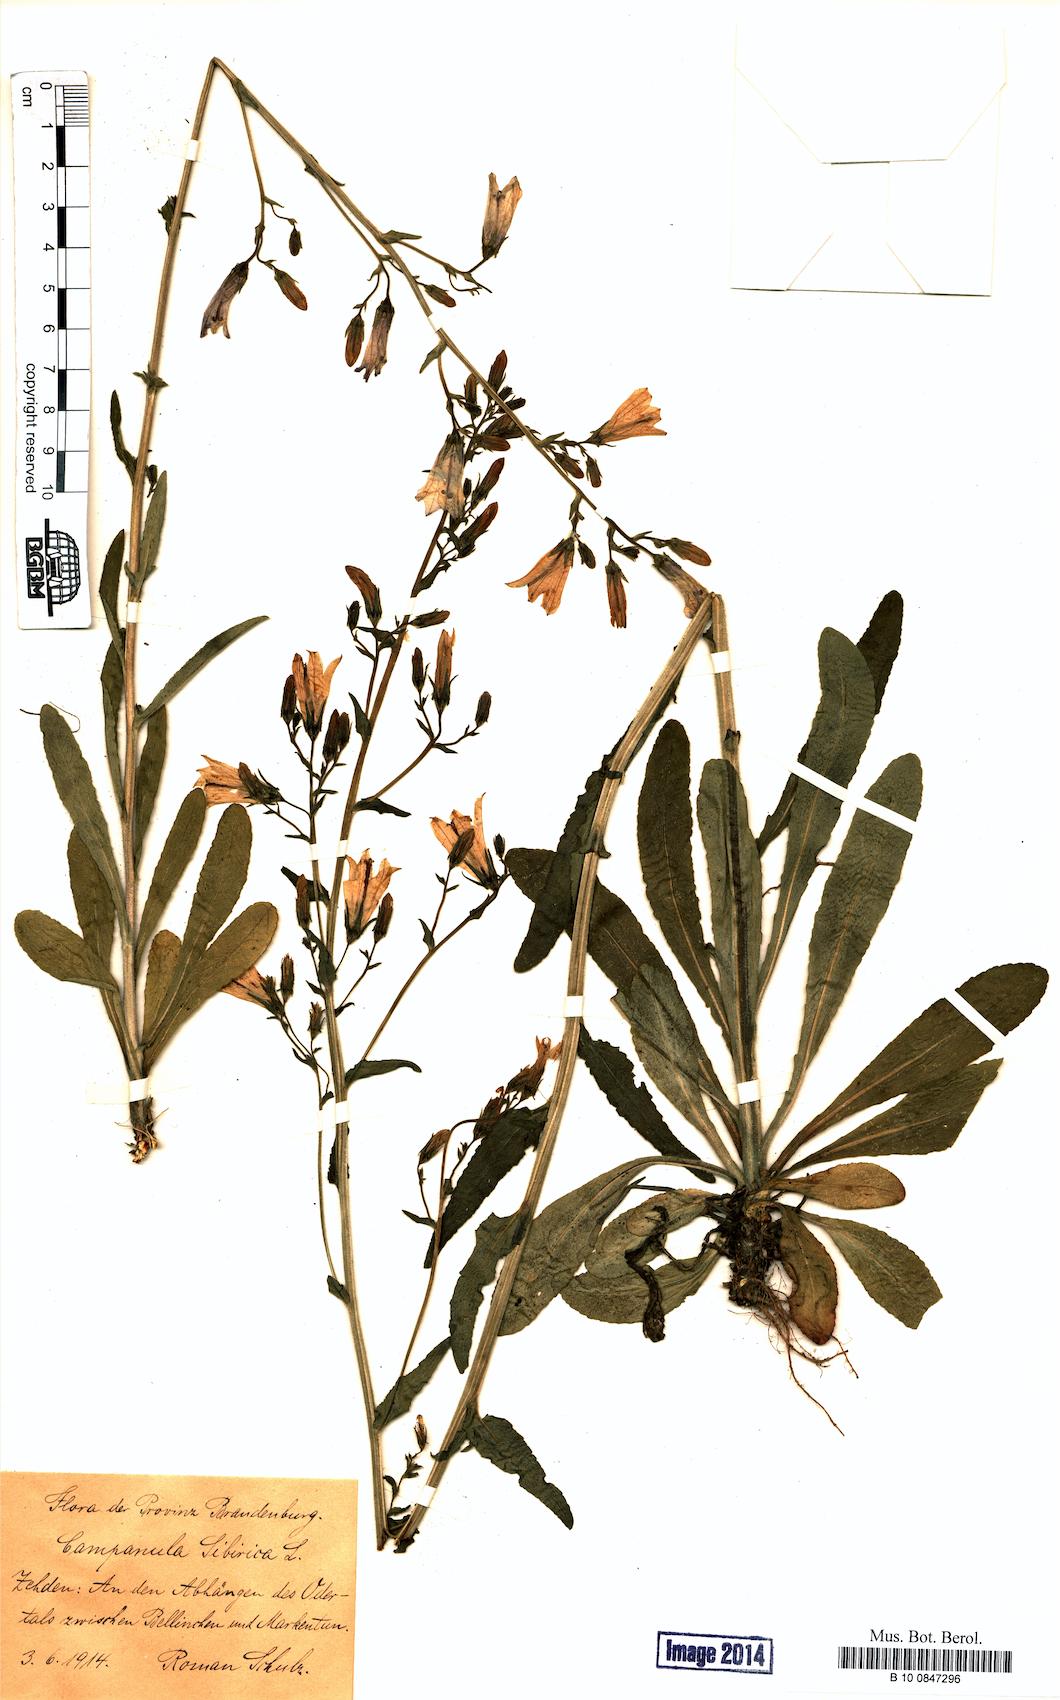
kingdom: Plantae
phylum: Tracheophyta
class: Magnoliopsida
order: Asterales
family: Campanulaceae
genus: Campanula
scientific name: Campanula sibirica
